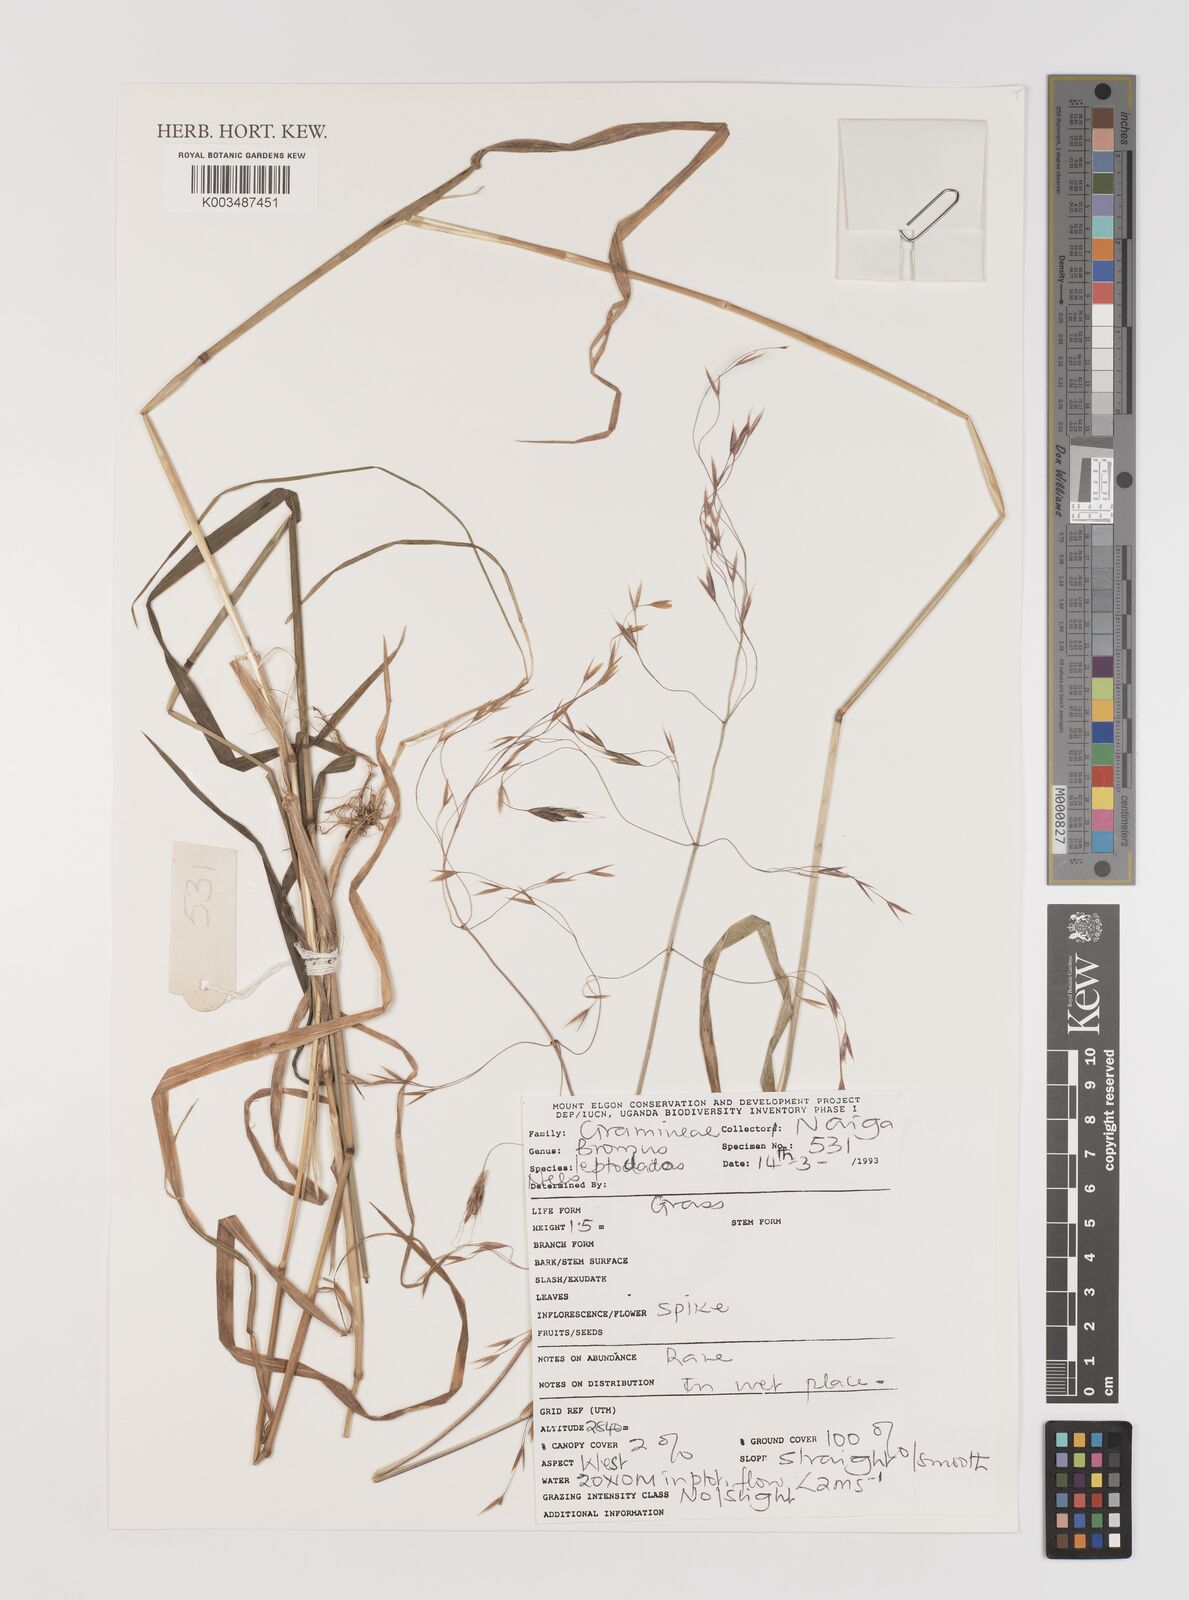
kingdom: Plantae
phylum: Tracheophyta
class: Liliopsida
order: Poales
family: Poaceae
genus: Bromus
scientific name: Bromus leptoclados
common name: Mountain bromegrass
